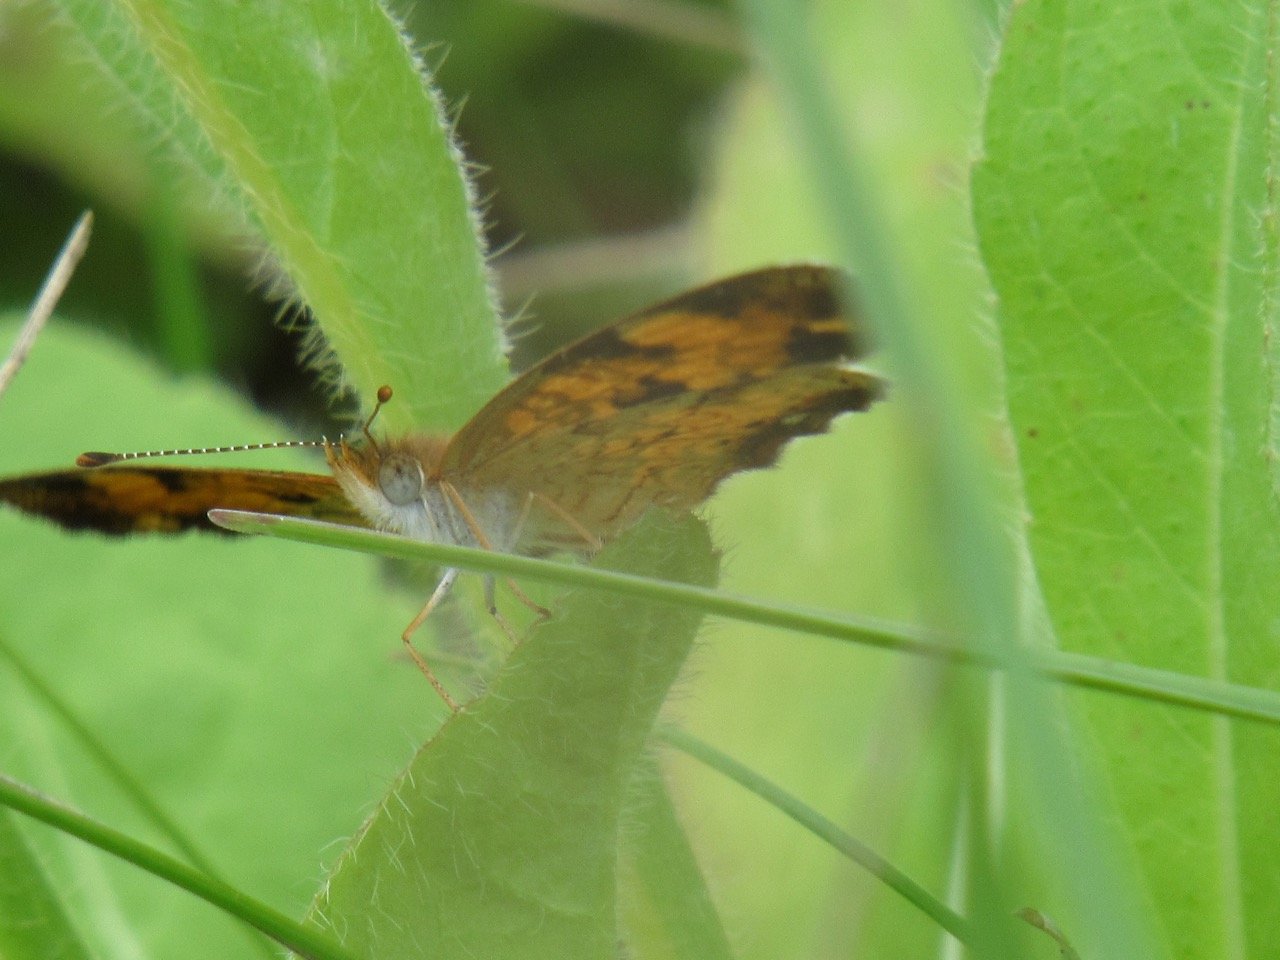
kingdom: Animalia
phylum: Arthropoda
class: Insecta
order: Lepidoptera
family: Nymphalidae
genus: Phyciodes
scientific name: Phyciodes tharos
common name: Pearl Crescent
